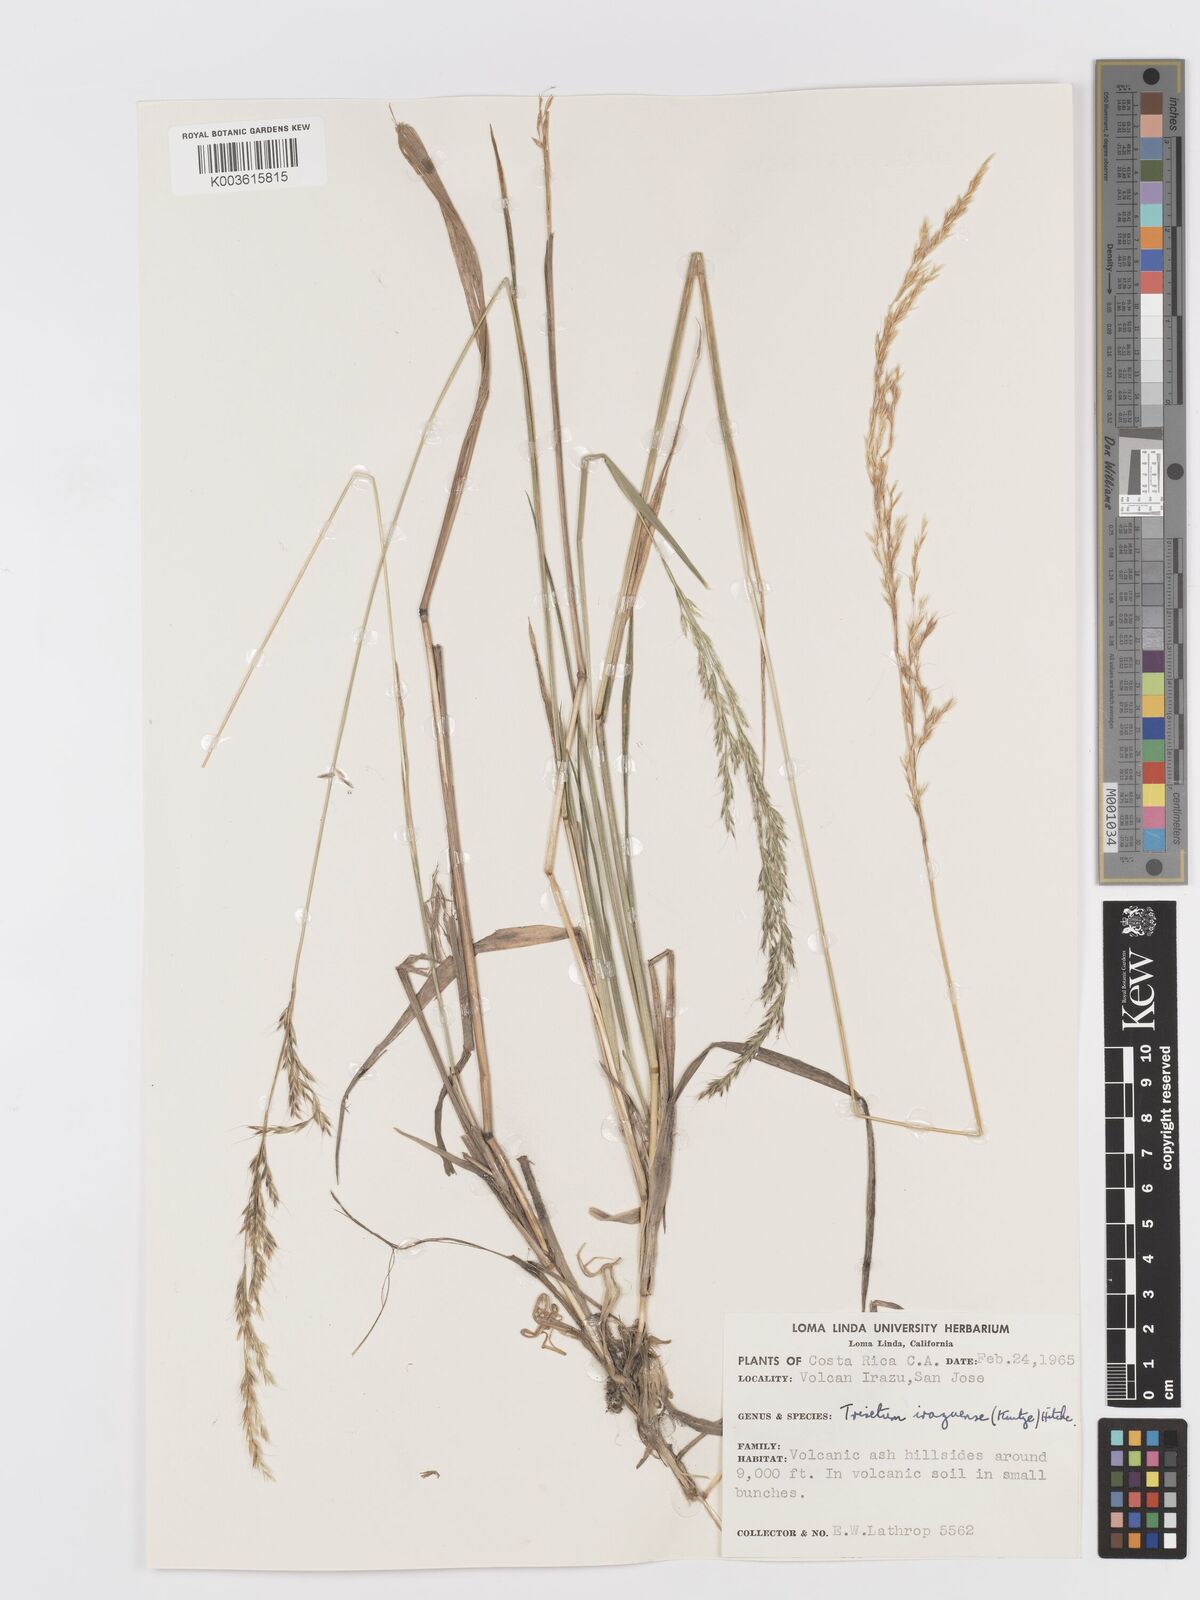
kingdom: Plantae
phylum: Tracheophyta
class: Liliopsida
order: Poales
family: Poaceae
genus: Peyritschia
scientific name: Peyritschia irazuensis
